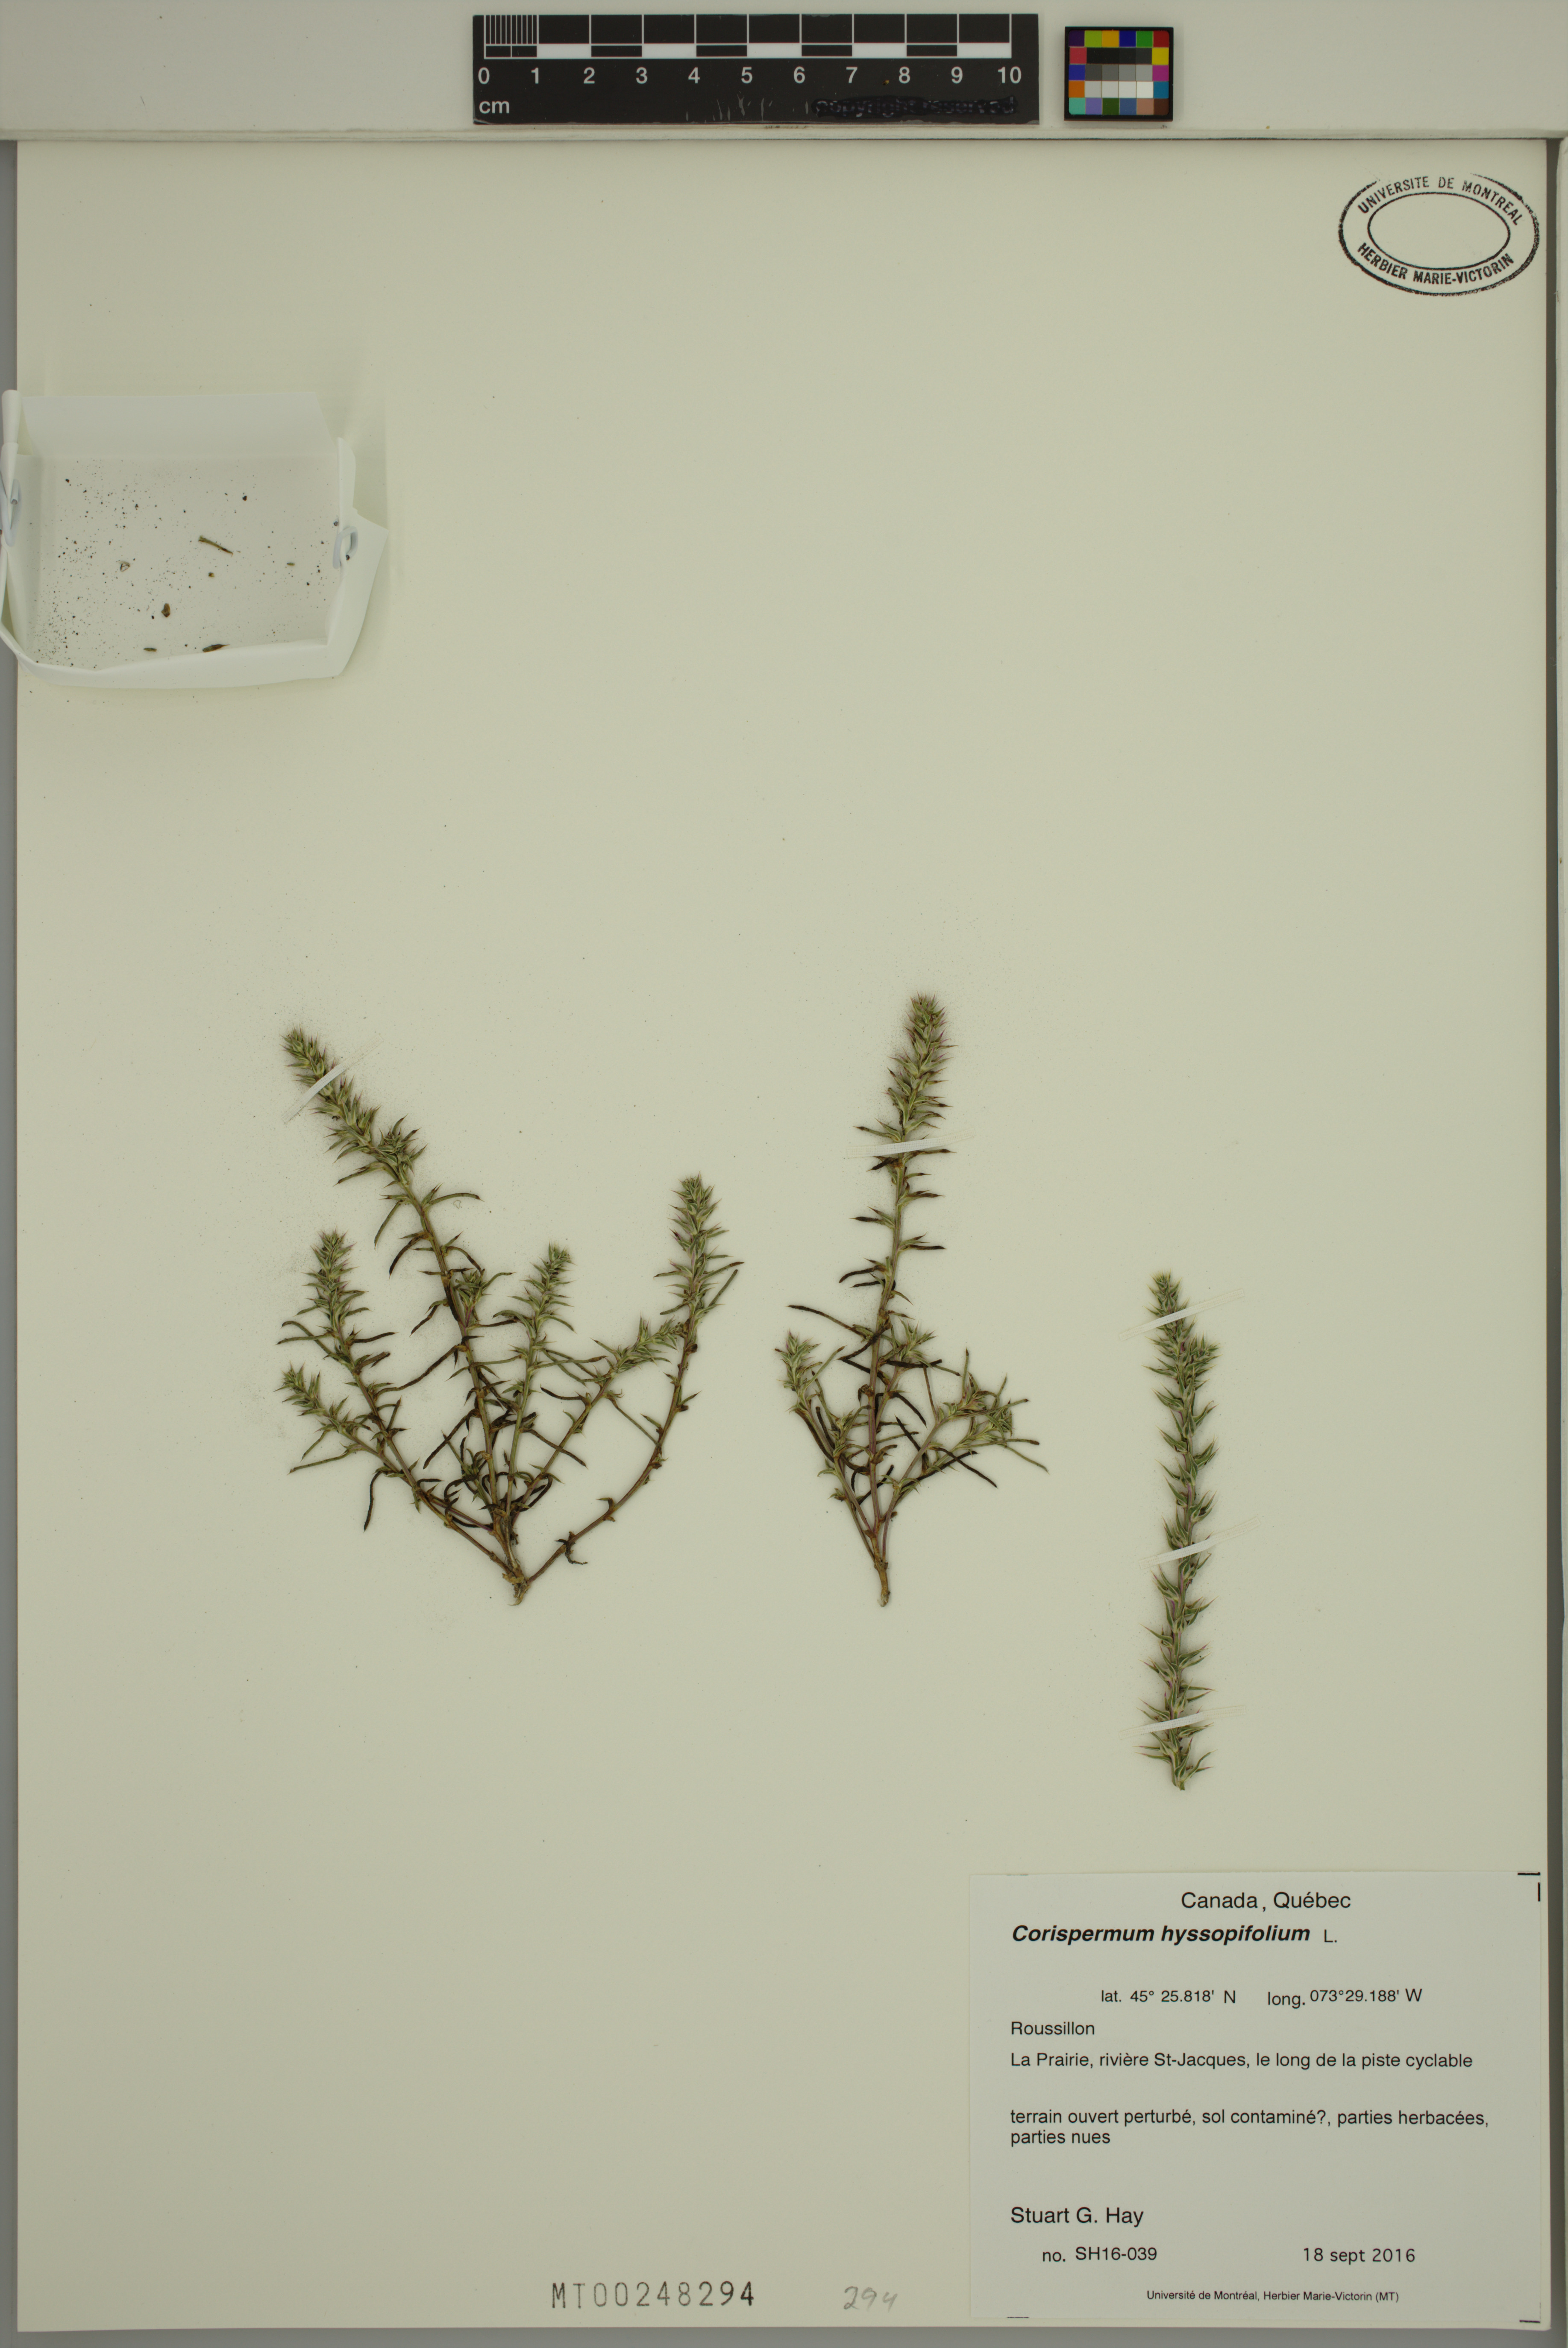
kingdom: Plantae
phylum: Tracheophyta
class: Magnoliopsida
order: Caryophyllales
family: Amaranthaceae
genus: Corispermum
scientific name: Corispermum hyssopifolium
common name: Bugseed
